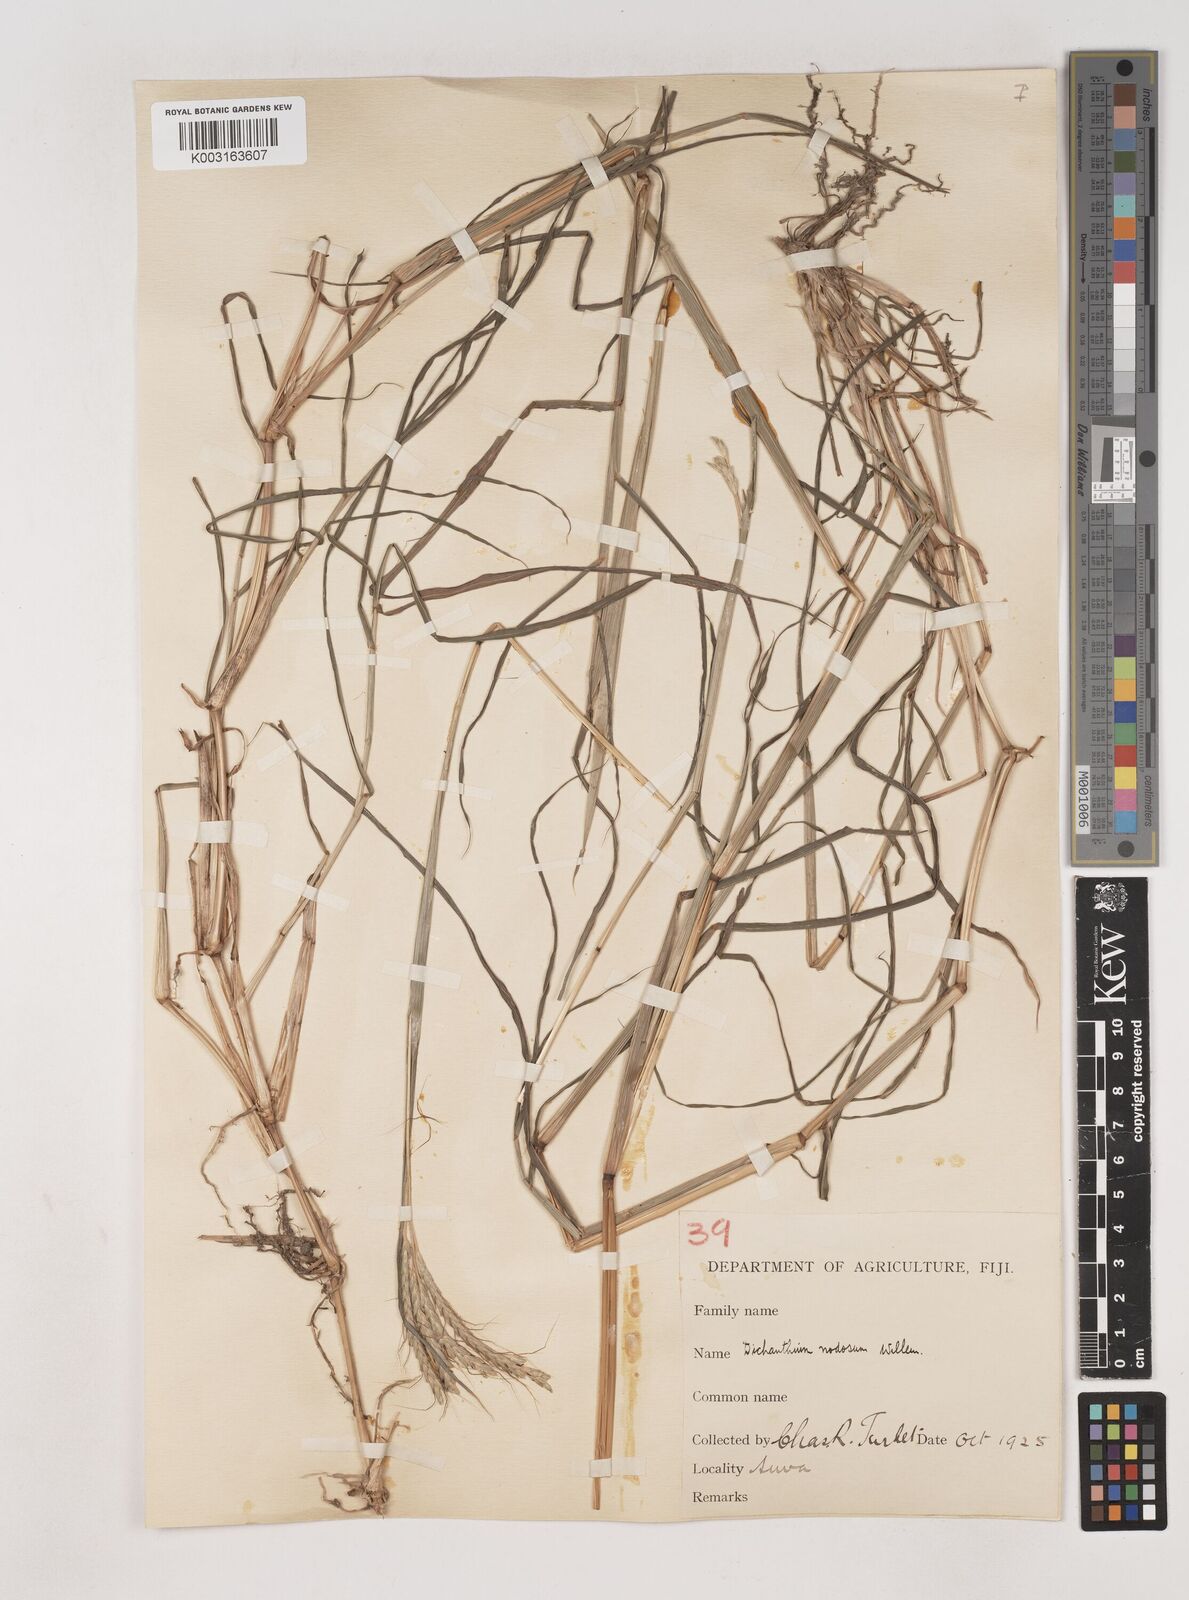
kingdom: Plantae
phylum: Tracheophyta
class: Liliopsida
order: Poales
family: Poaceae
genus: Dichanthium
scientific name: Dichanthium aristatum
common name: Angleton bluestem
